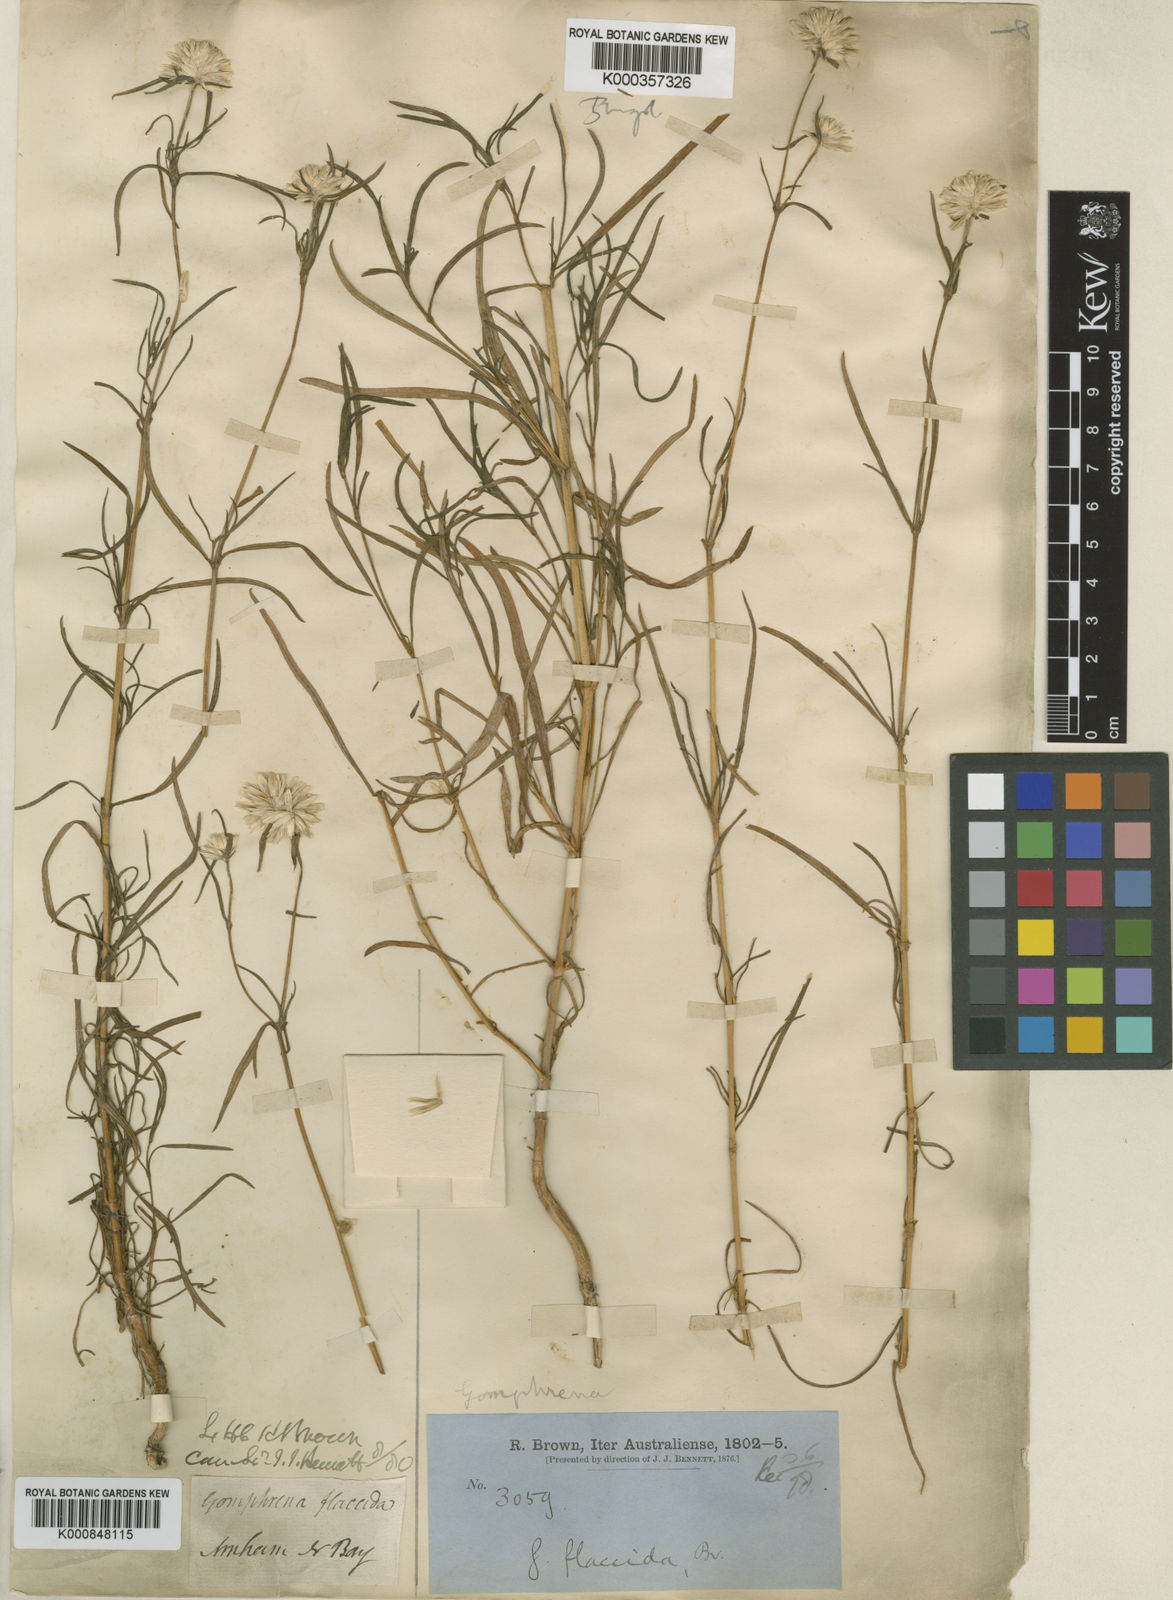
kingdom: Plantae
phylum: Tracheophyta
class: Magnoliopsida
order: Caryophyllales
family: Amaranthaceae
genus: Gomphrena
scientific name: Gomphrena flaccida
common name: Gomphrena-weed
